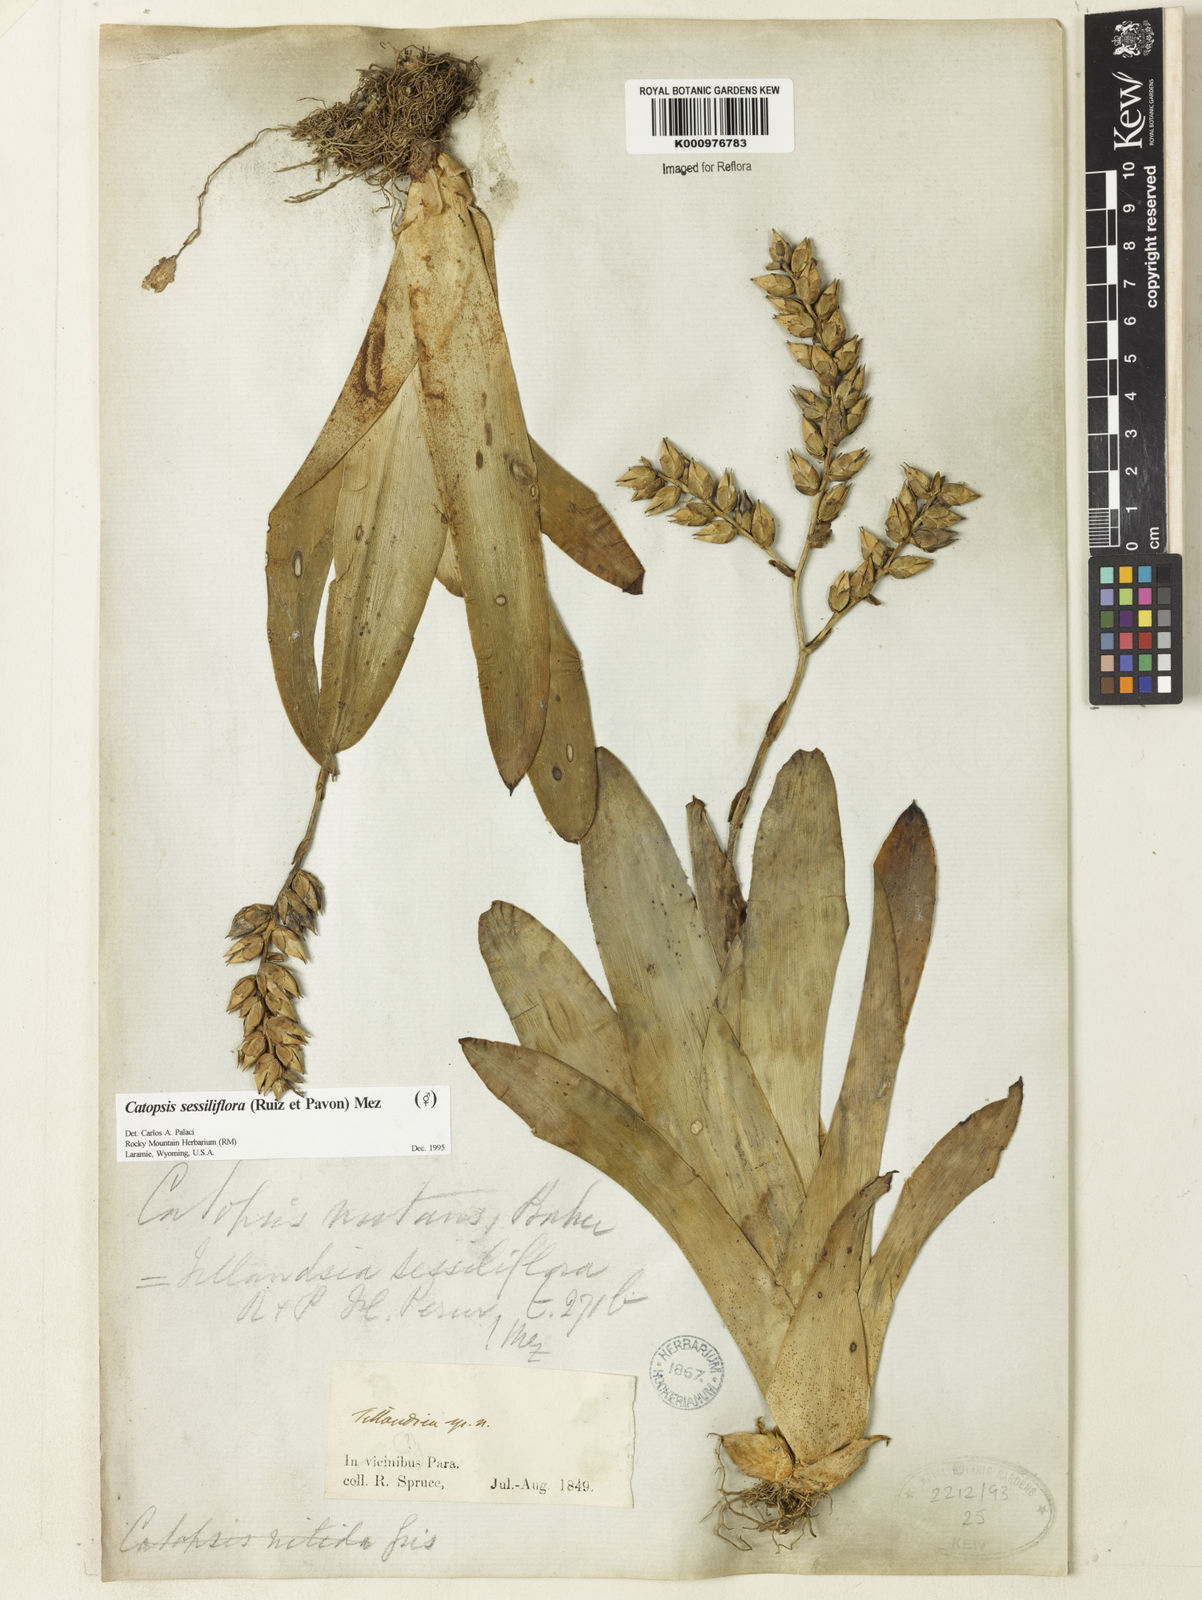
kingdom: Plantae
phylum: Tracheophyta
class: Liliopsida
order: Poales
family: Bromeliaceae
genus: Catopsis
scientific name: Catopsis
